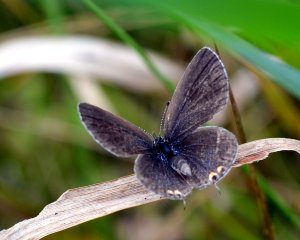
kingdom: Animalia
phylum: Arthropoda
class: Insecta
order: Lepidoptera
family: Lycaenidae
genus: Elkalyce
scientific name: Elkalyce comyntas
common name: Eastern Tailed-Blue
